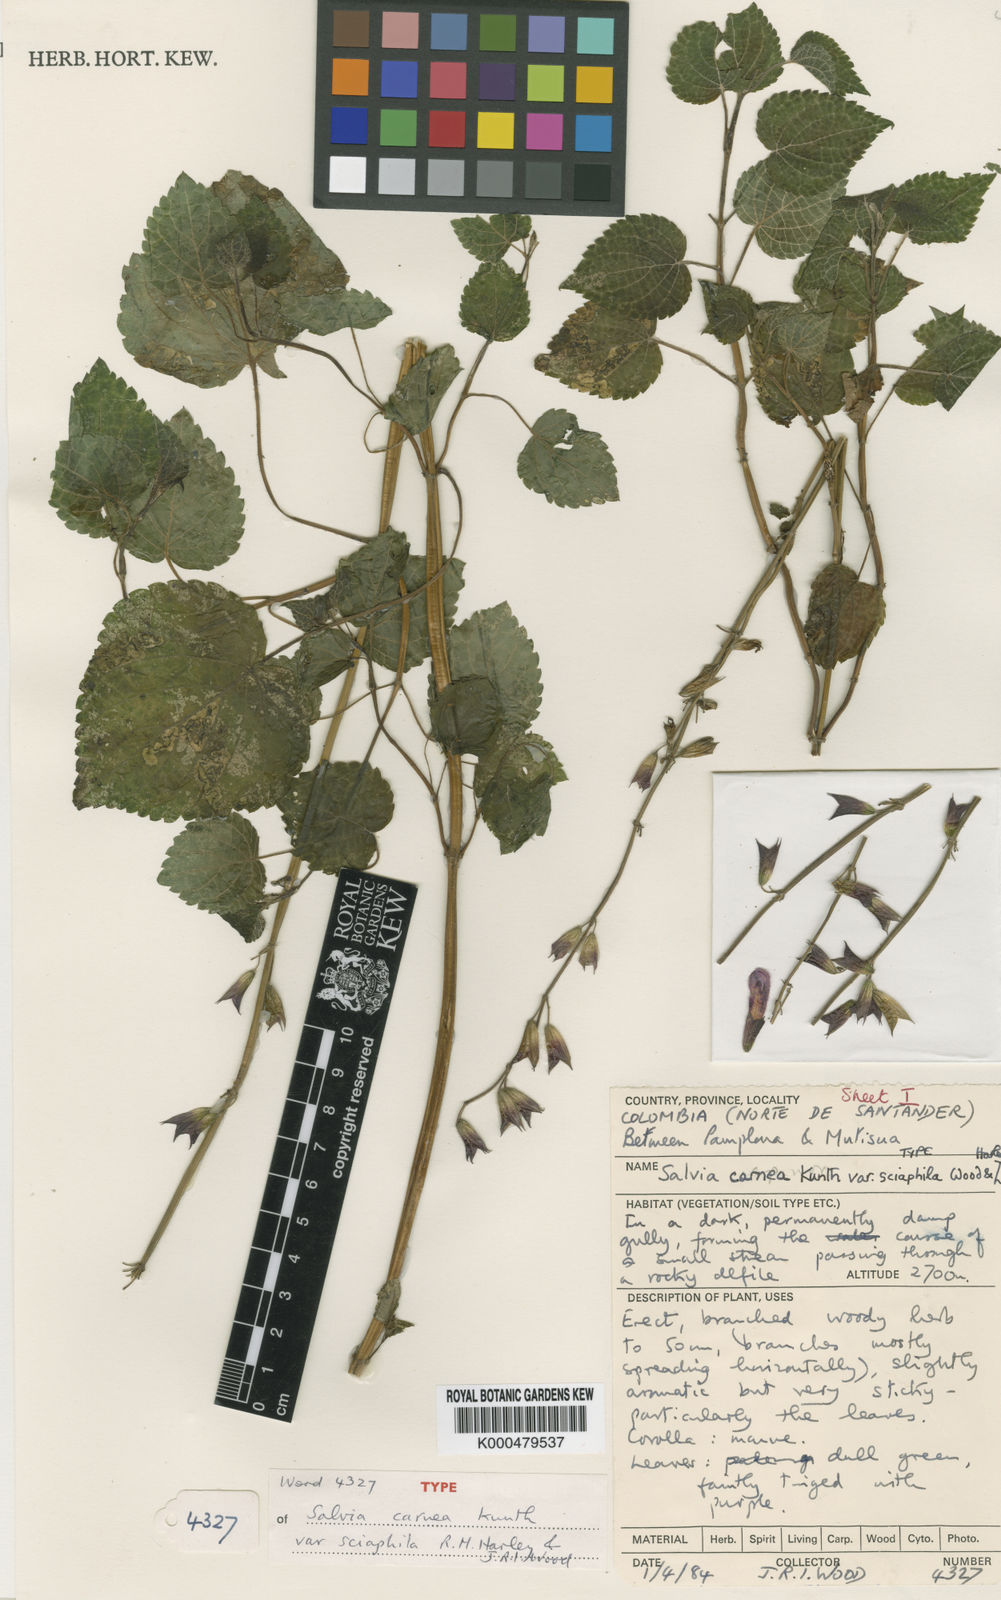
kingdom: Plantae
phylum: Tracheophyta
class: Magnoliopsida
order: Lamiales
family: Lamiaceae
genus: Salvia
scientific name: Salvia sciaphila
